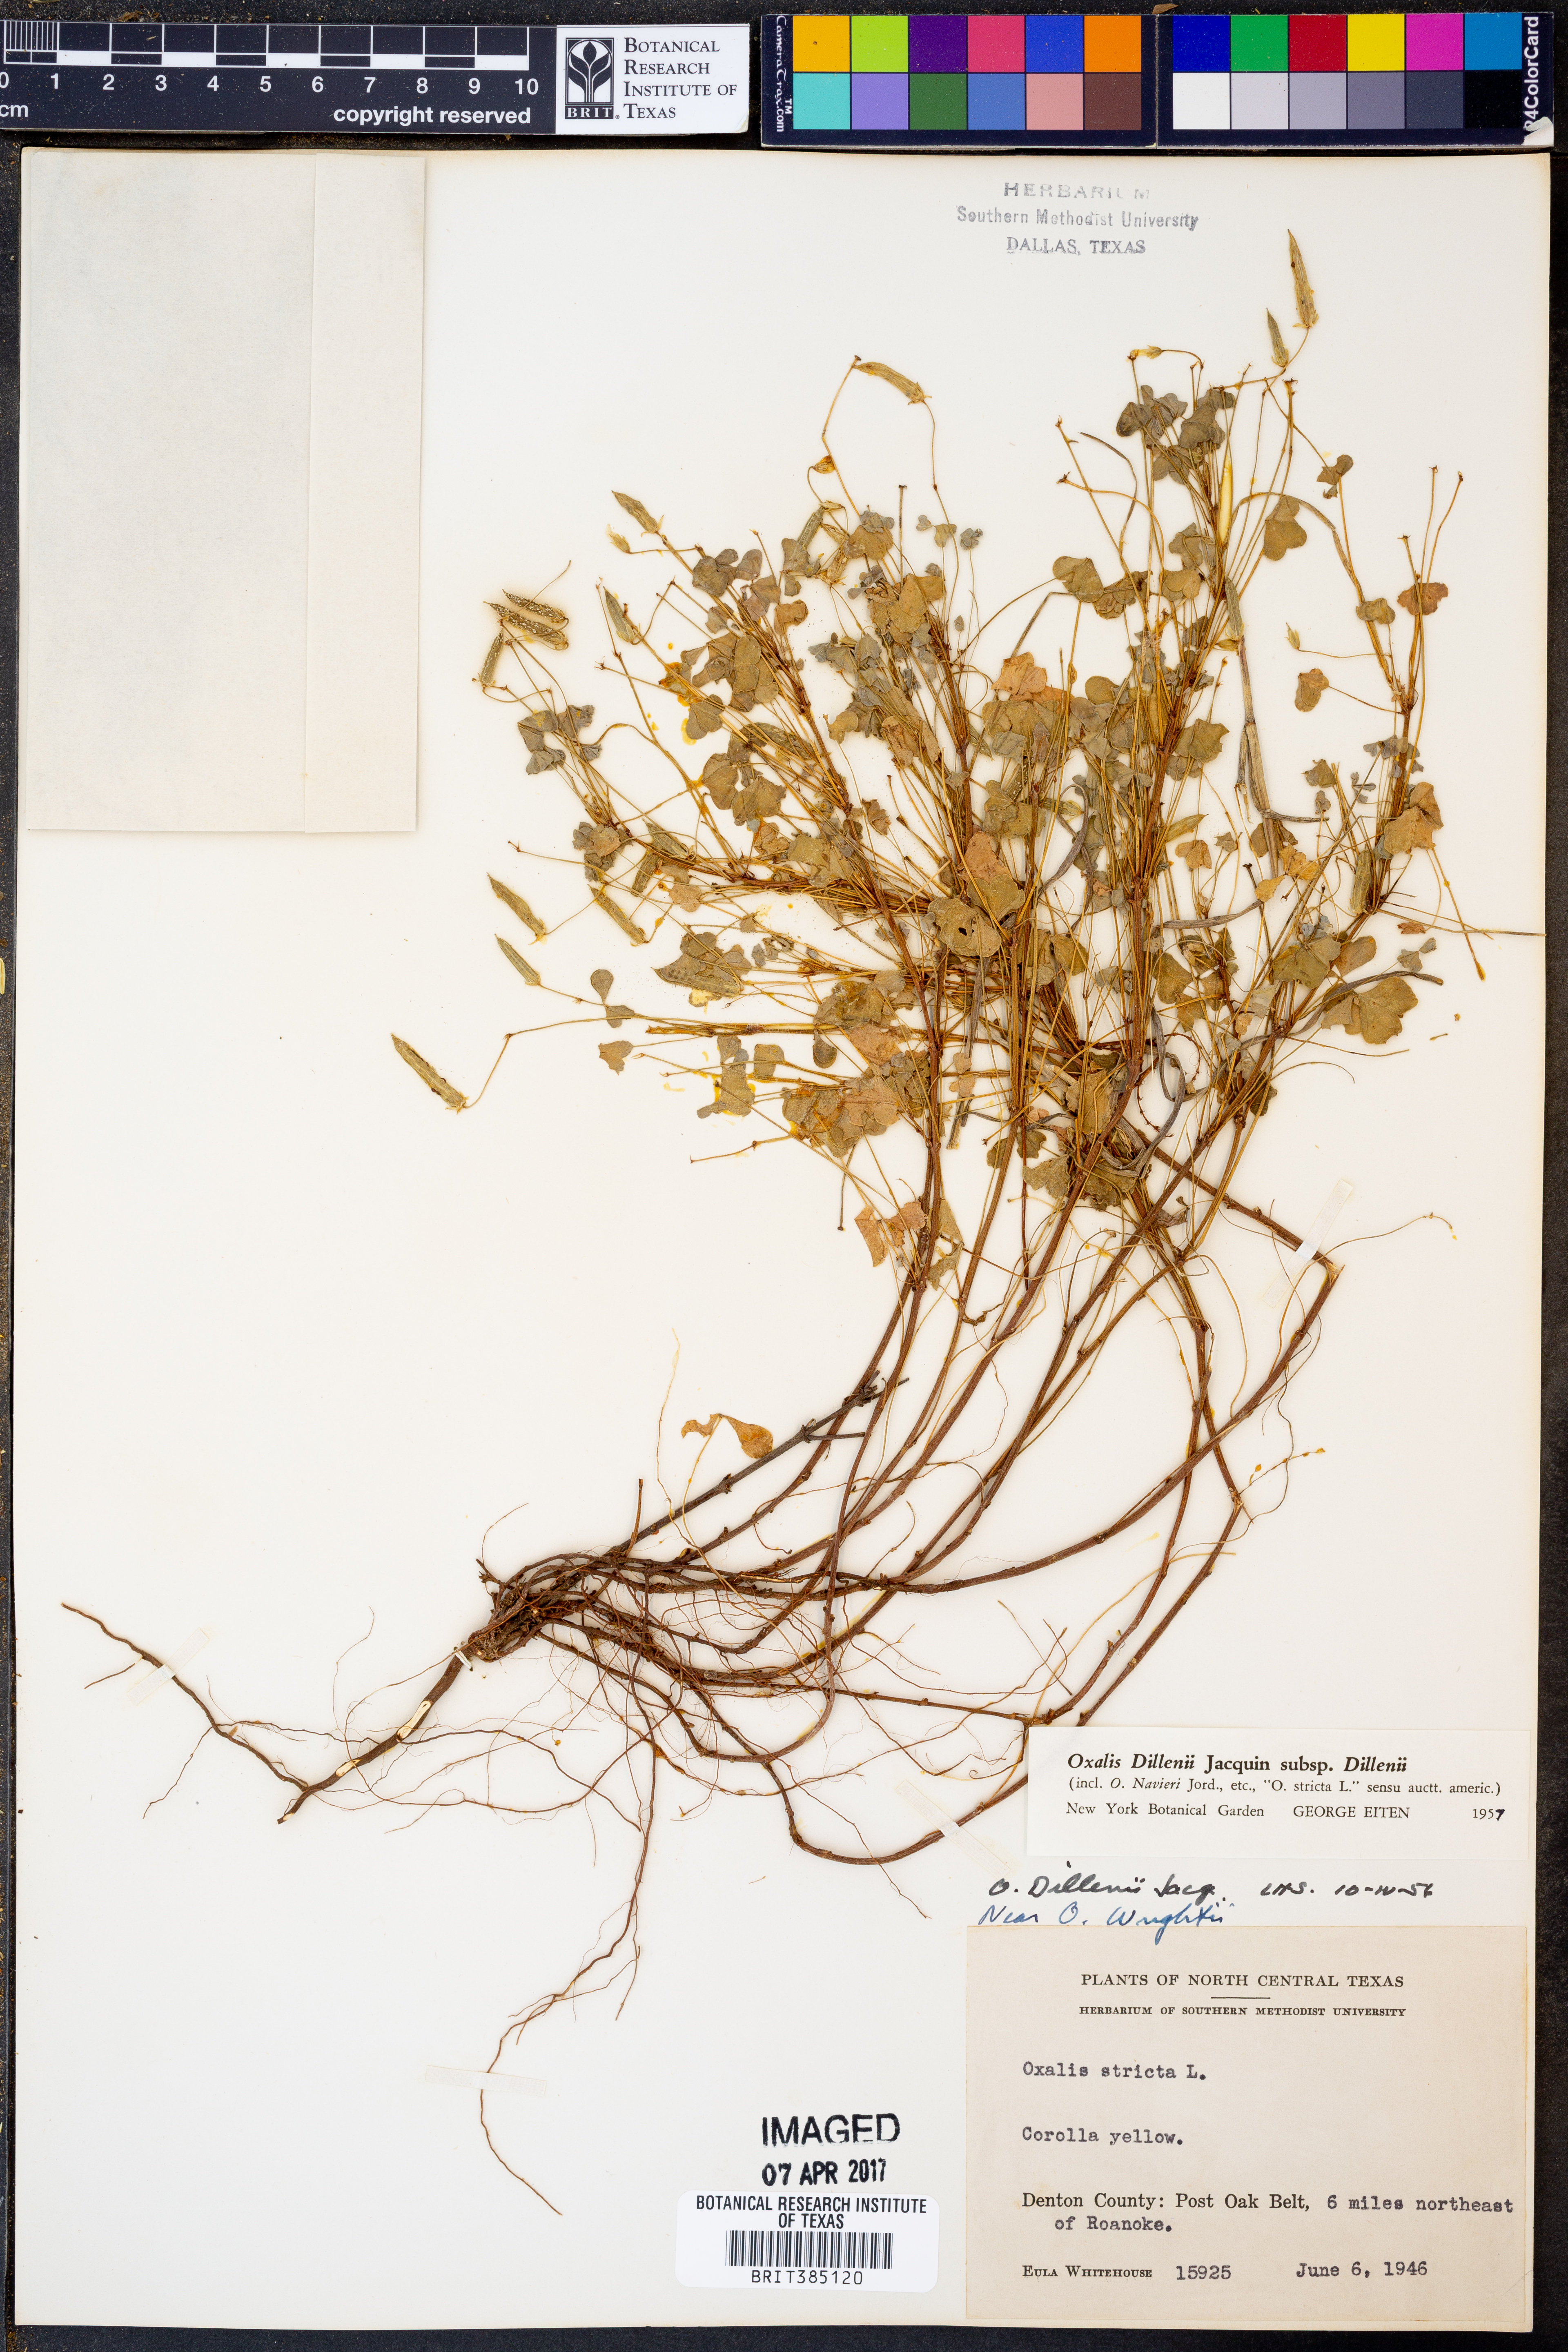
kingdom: Plantae
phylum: Tracheophyta
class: Magnoliopsida
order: Oxalidales
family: Oxalidaceae
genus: Oxalis
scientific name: Oxalis dillenii
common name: Sussex yellow-sorrel
